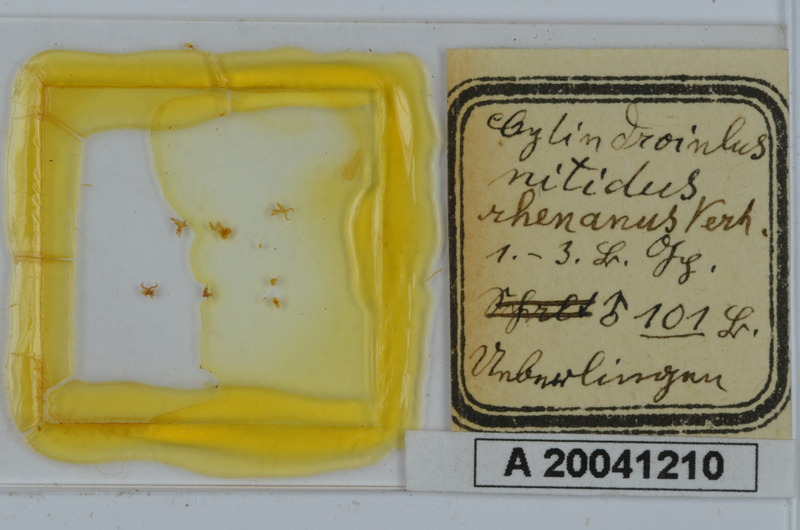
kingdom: Animalia
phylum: Arthropoda
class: Diplopoda
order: Julida
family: Julidae
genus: Allajulus
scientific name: Allajulus nitidus
